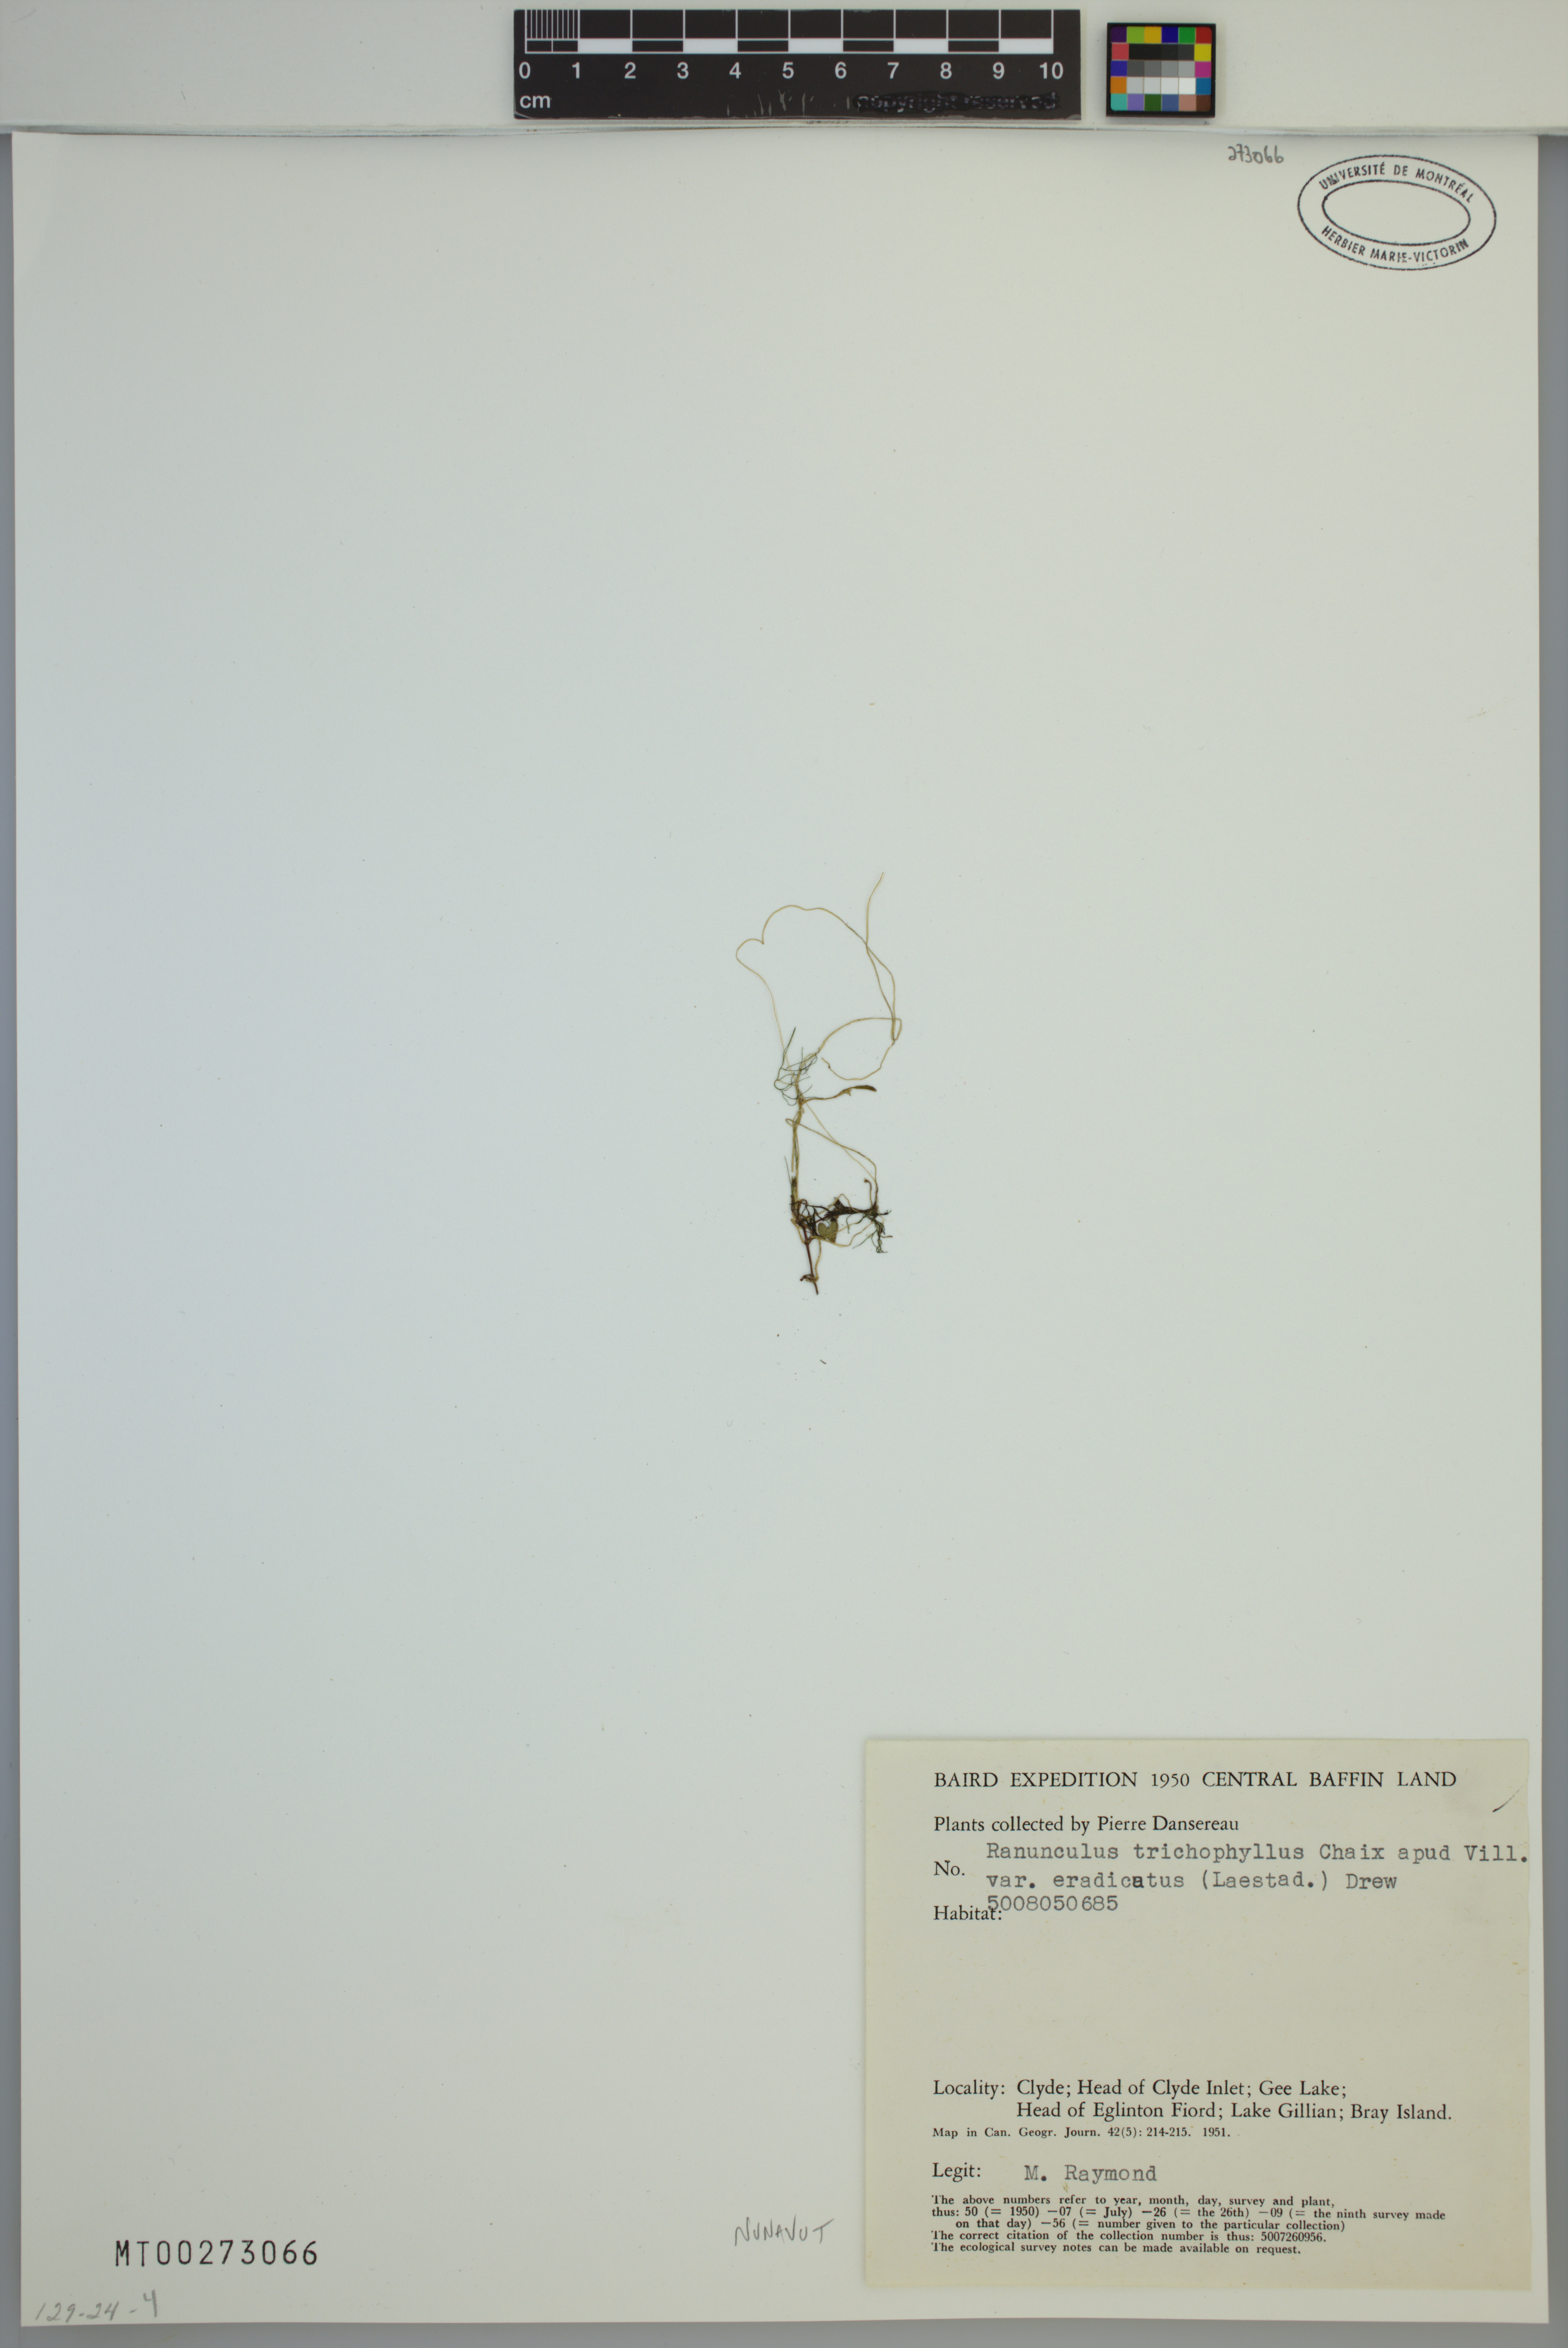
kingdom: Plantae
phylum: Tracheophyta
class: Magnoliopsida
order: Ranunculales
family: Ranunculaceae
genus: Ranunculus
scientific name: Ranunculus confervoides
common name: Delicate buttercup
